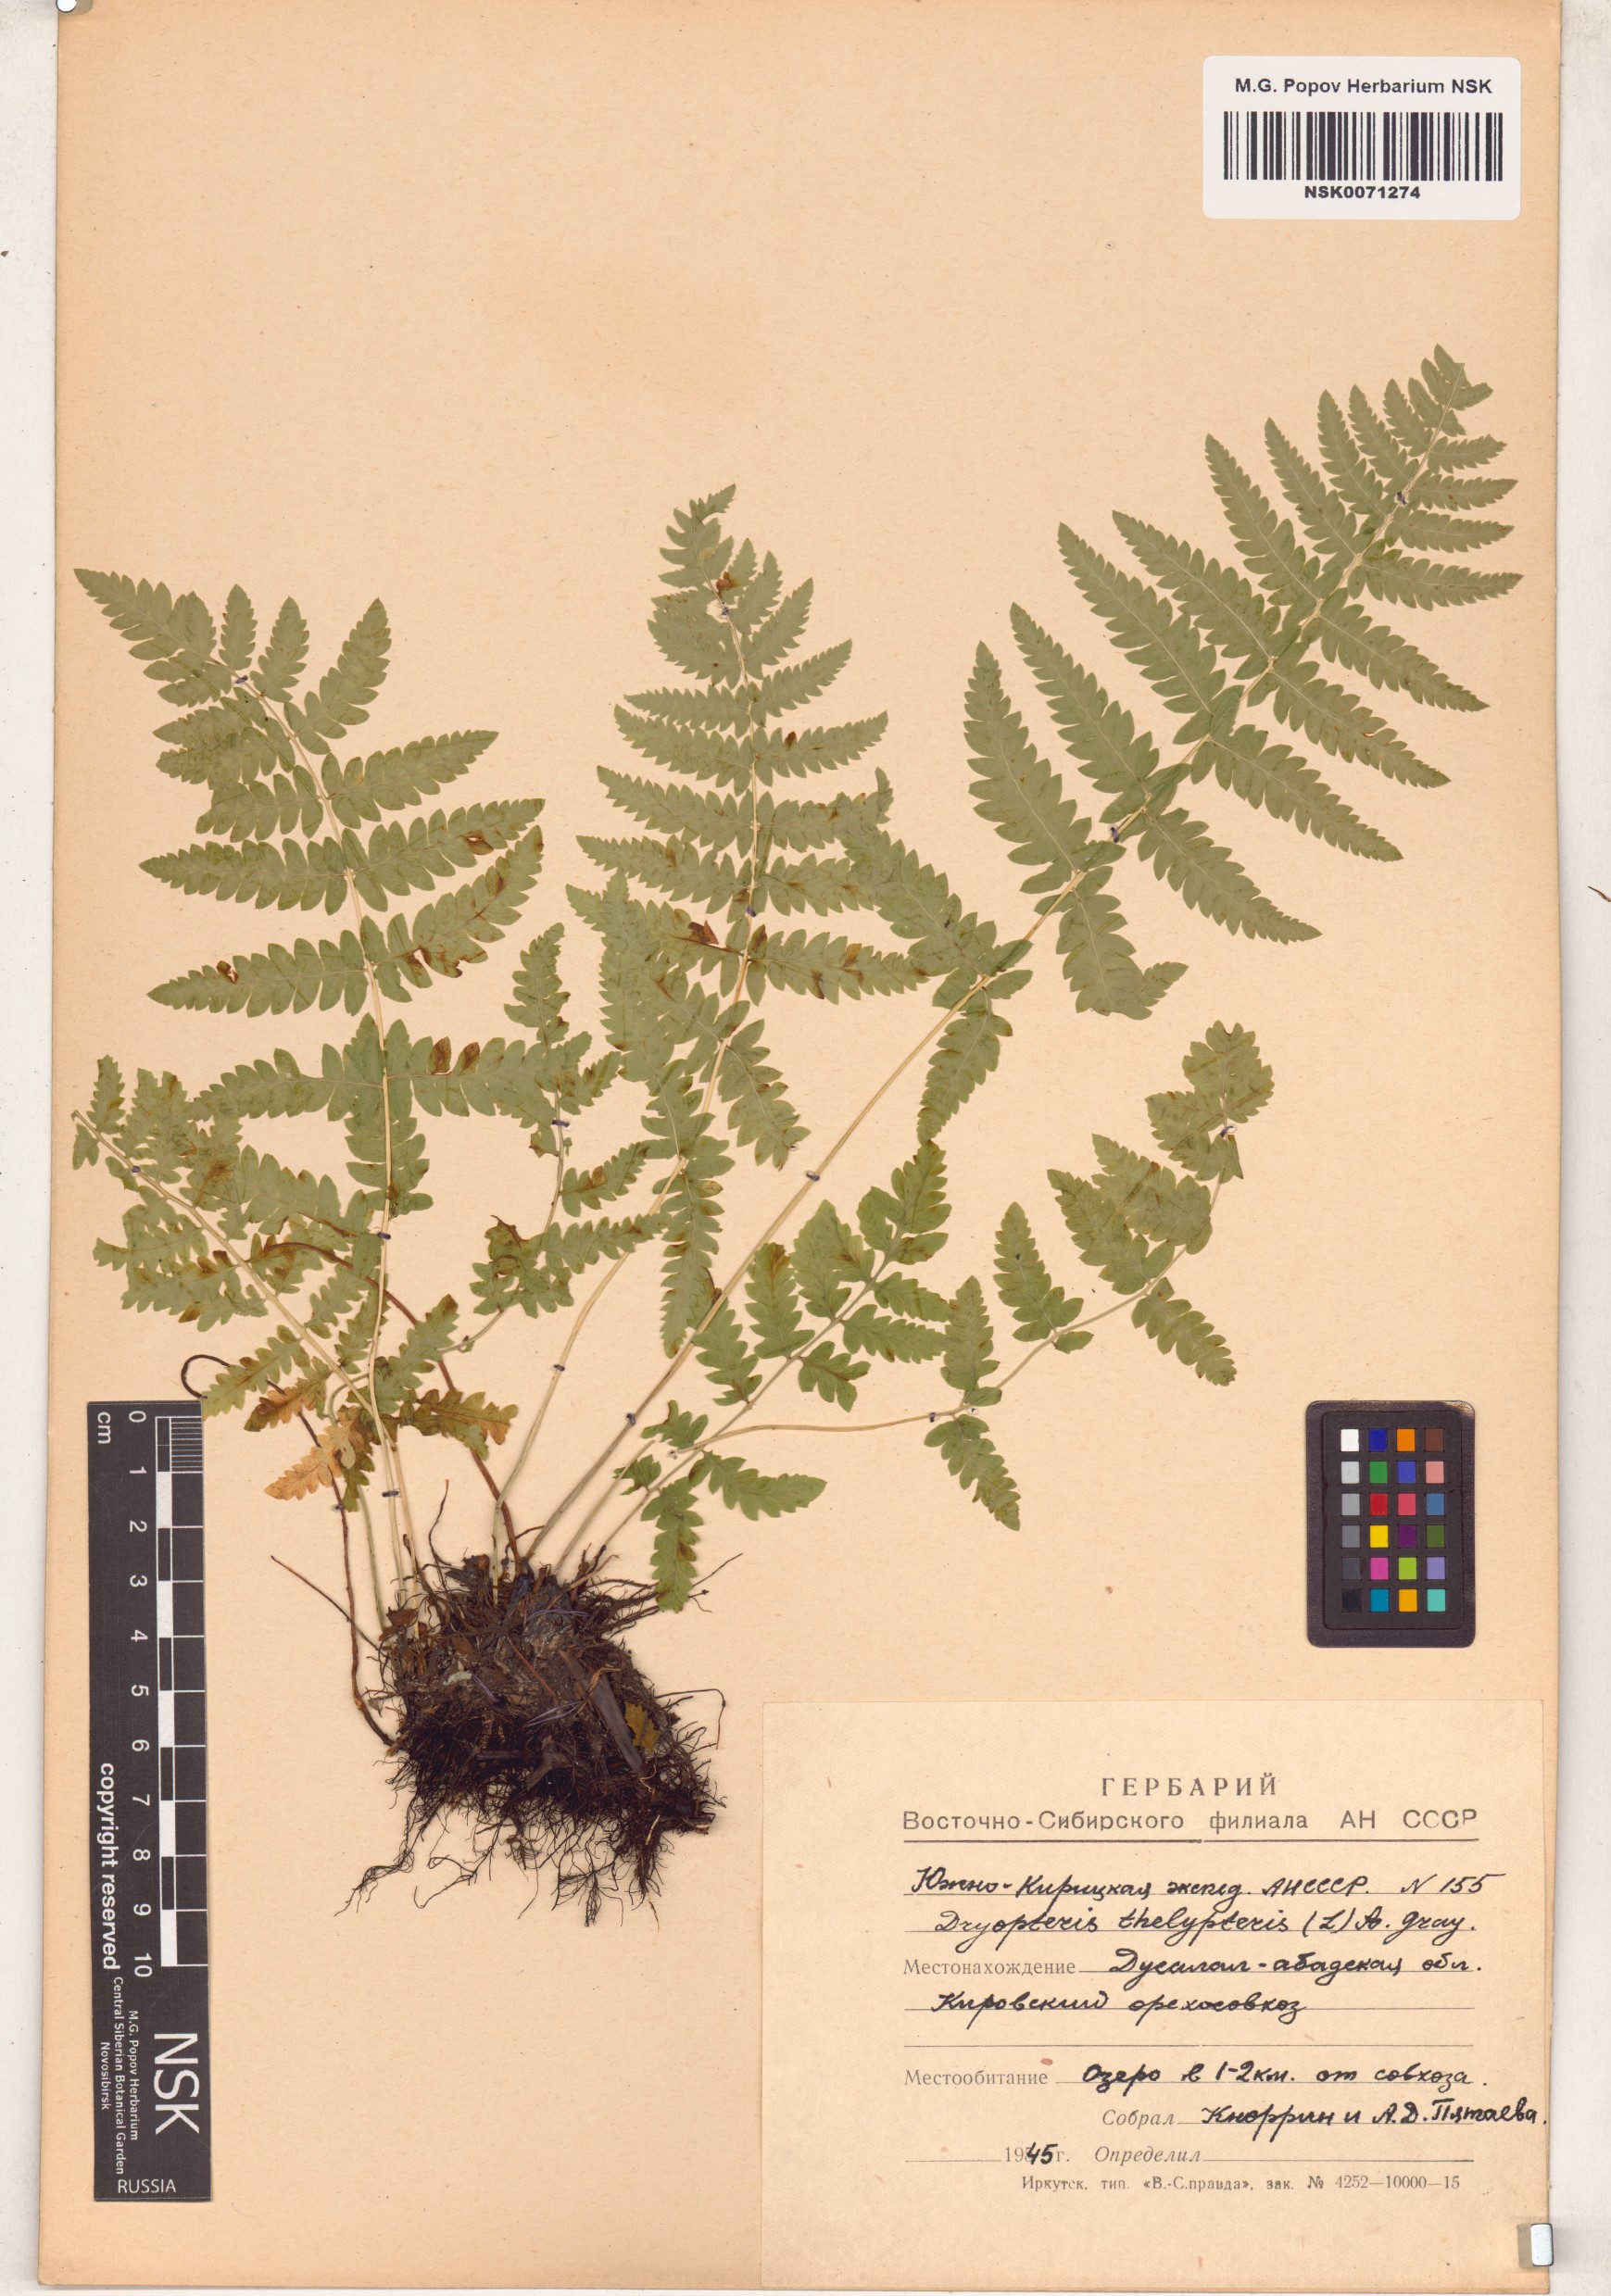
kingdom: Plantae
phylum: Tracheophyta
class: Polypodiopsida
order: Polypodiales
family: Thelypteridaceae
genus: Thelypteris
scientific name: Thelypteris palustris
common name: Marsh fern
